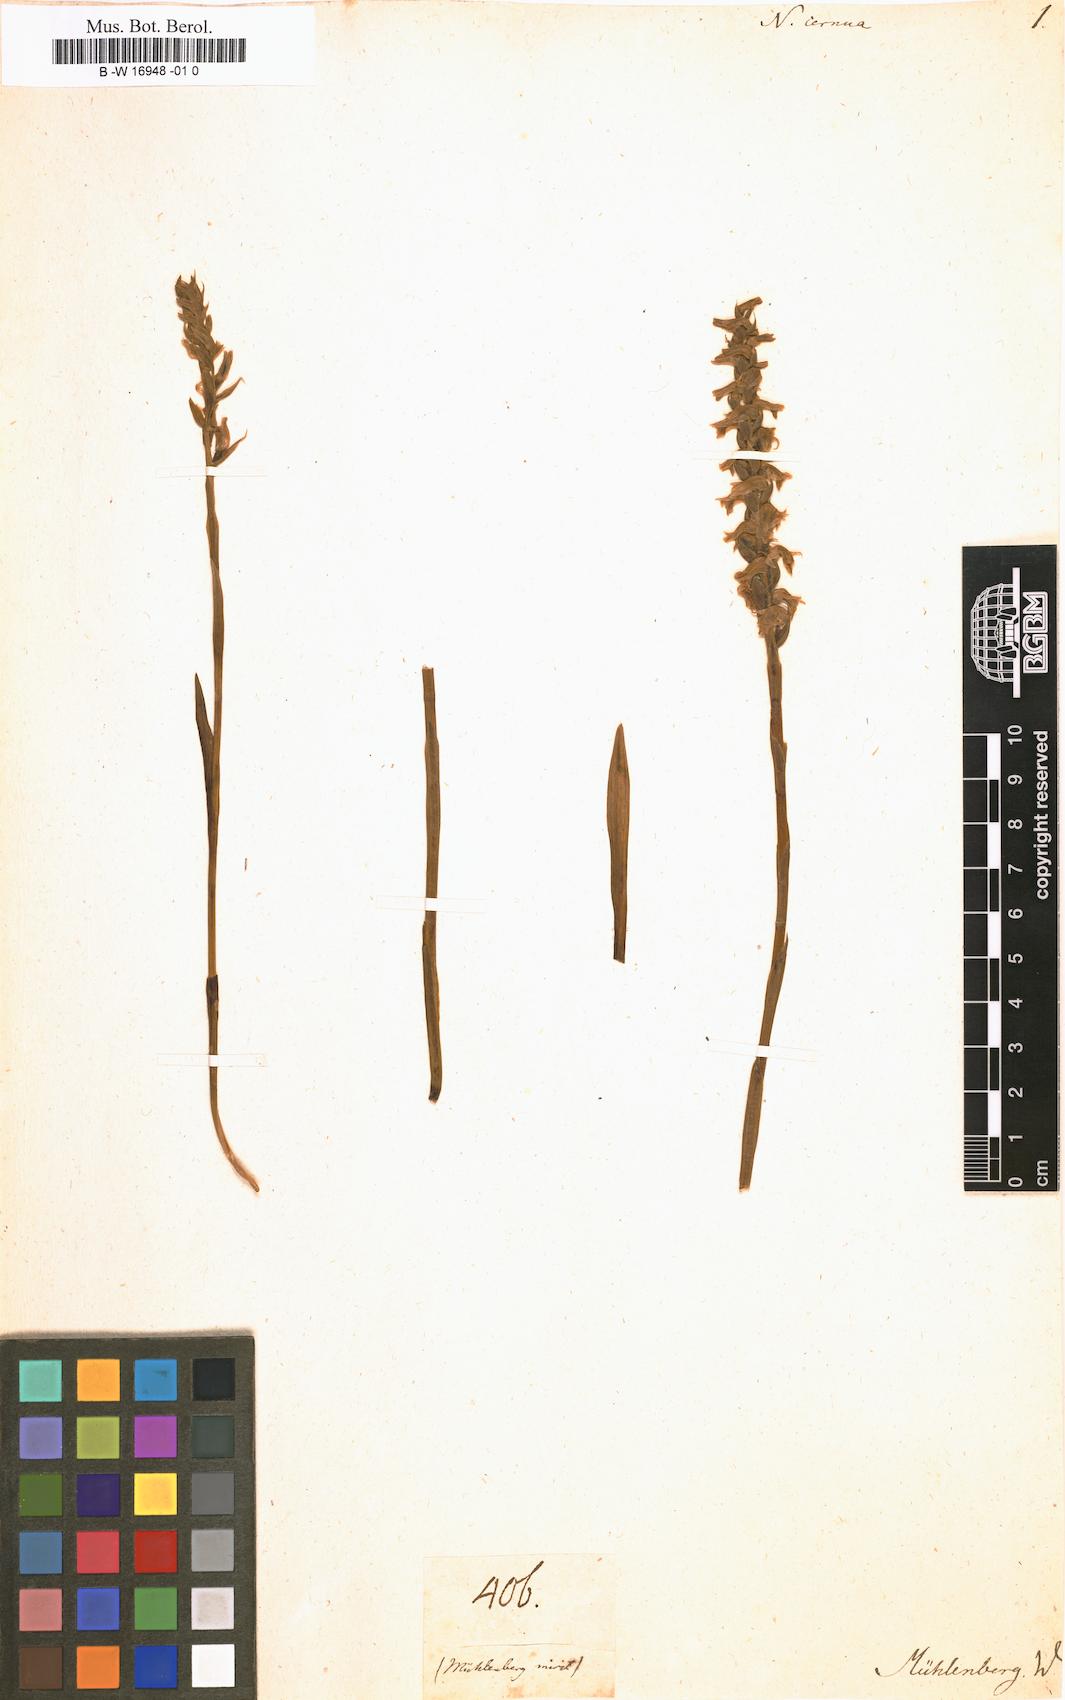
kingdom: Plantae
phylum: Tracheophyta
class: Liliopsida
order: Asparagales
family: Orchidaceae
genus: Spiranthes
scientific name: Spiranthes cernua
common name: Dropping ladies'-tresses
